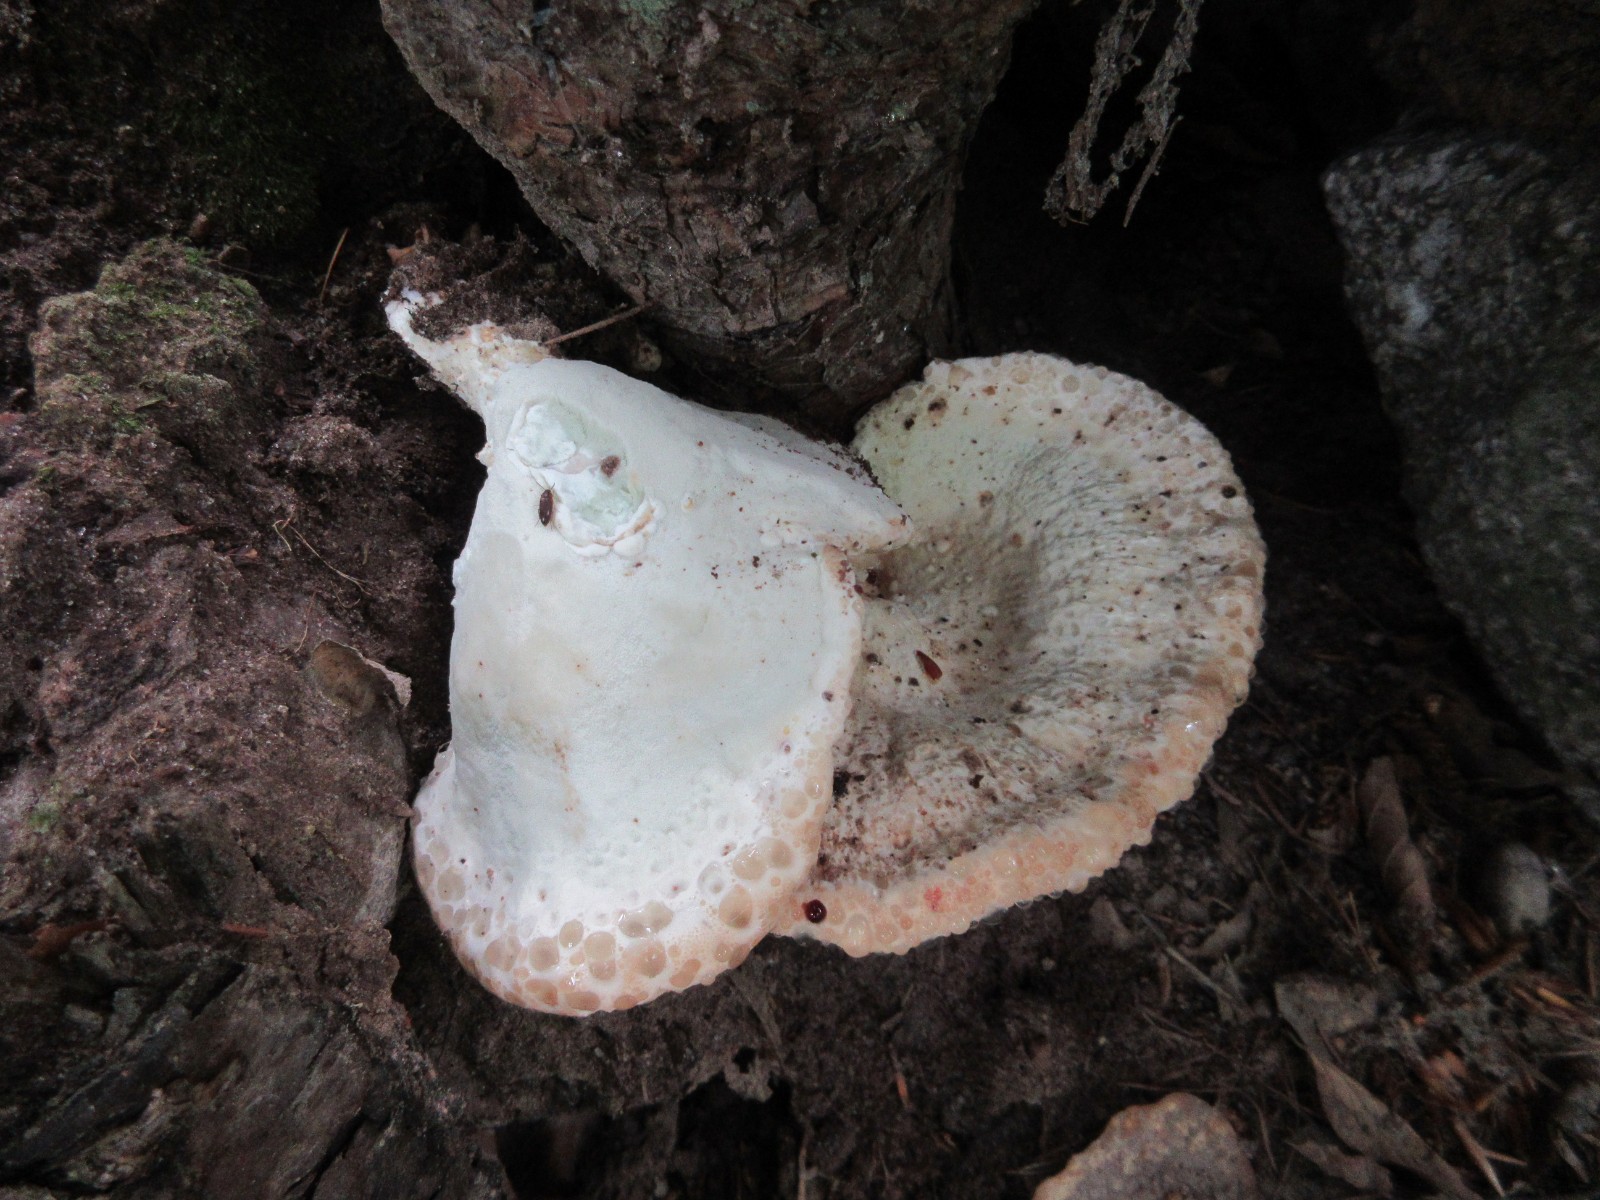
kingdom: Fungi
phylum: Basidiomycota
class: Agaricomycetes
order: Polyporales
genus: Calcipostia
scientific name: Calcipostia guttulata
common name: dråbe-kødporesvamp
